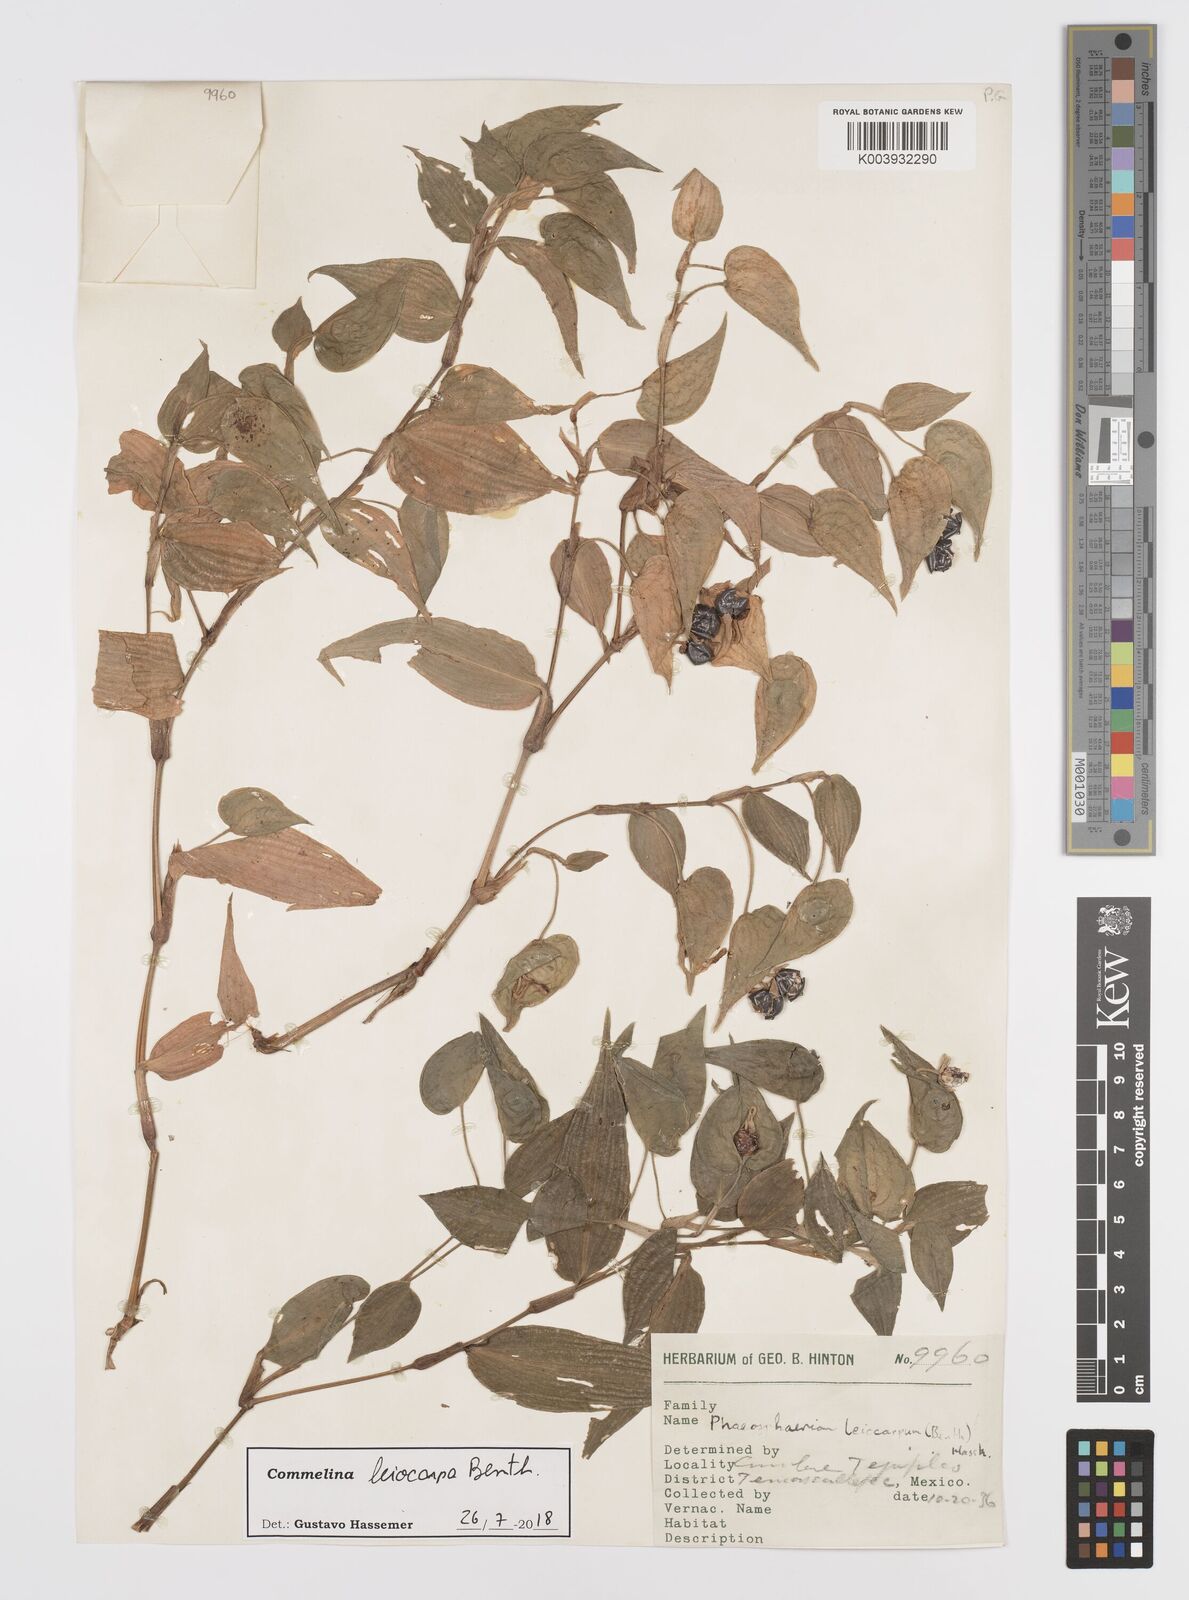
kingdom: Plantae
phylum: Tracheophyta
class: Liliopsida
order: Commelinales
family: Commelinaceae
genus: Commelina
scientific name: Commelina leiocarpa
